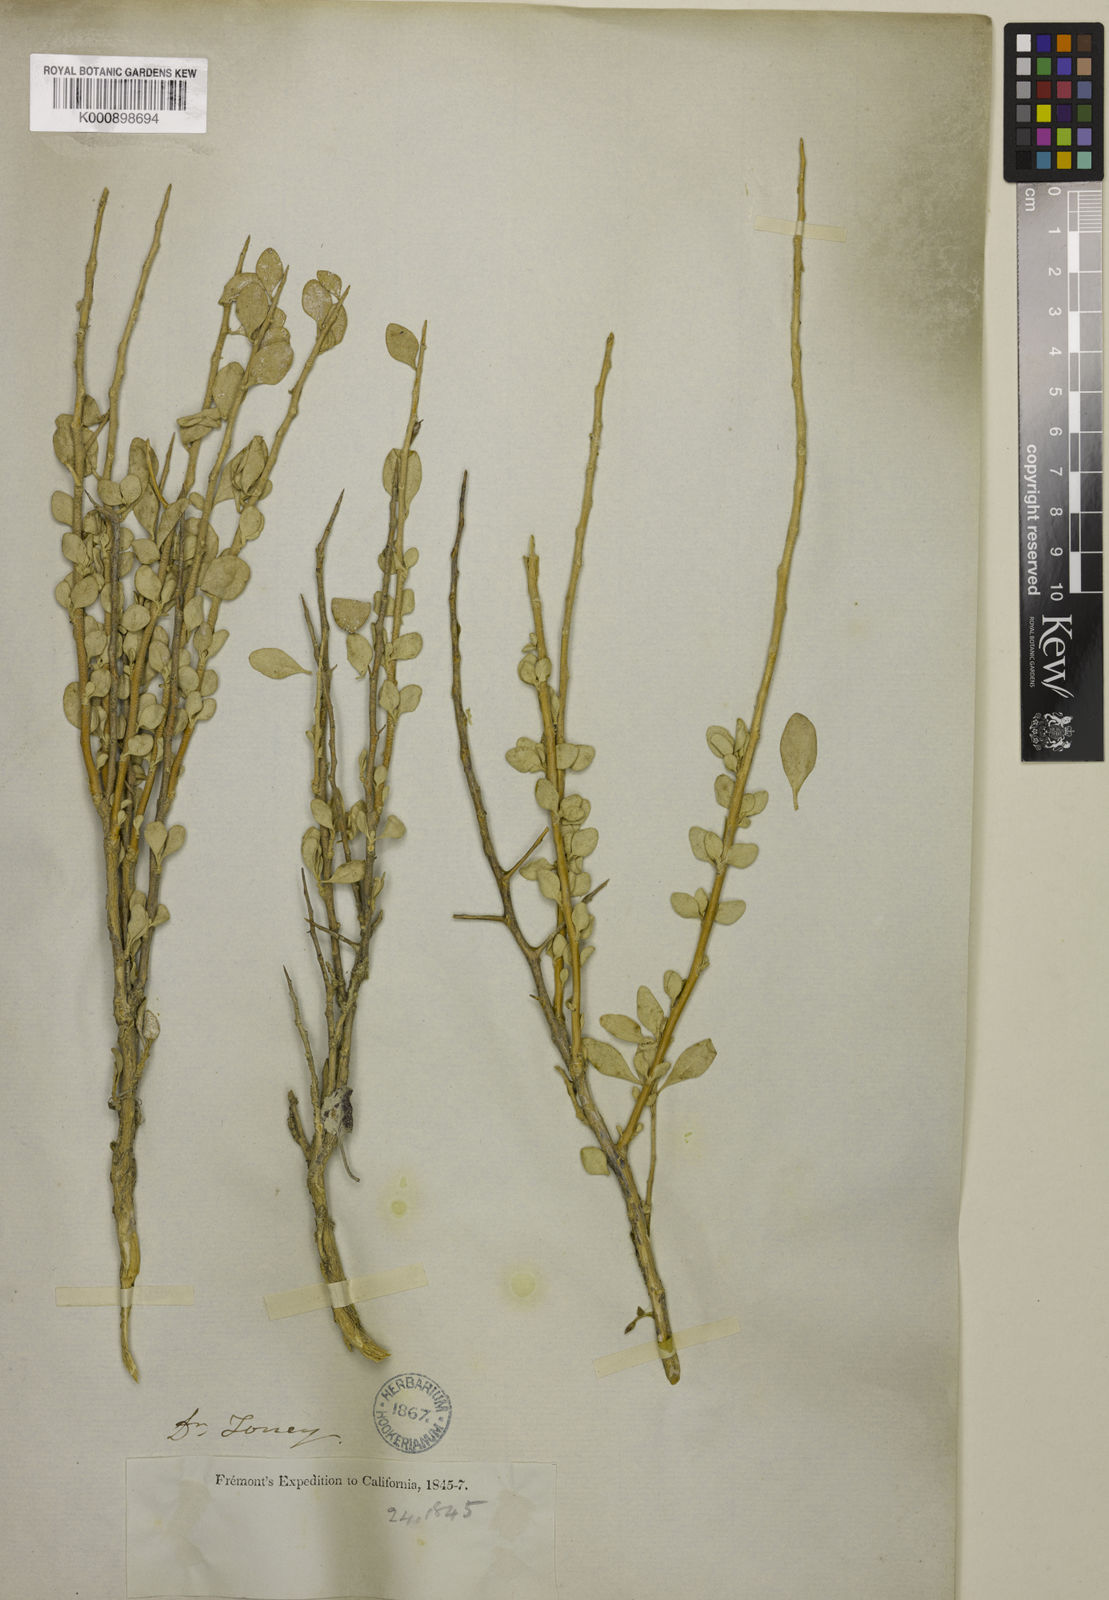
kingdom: Plantae
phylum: Tracheophyta
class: Magnoliopsida
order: Caryophyllales
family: Amaranthaceae
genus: Atriplex
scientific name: Atriplex
